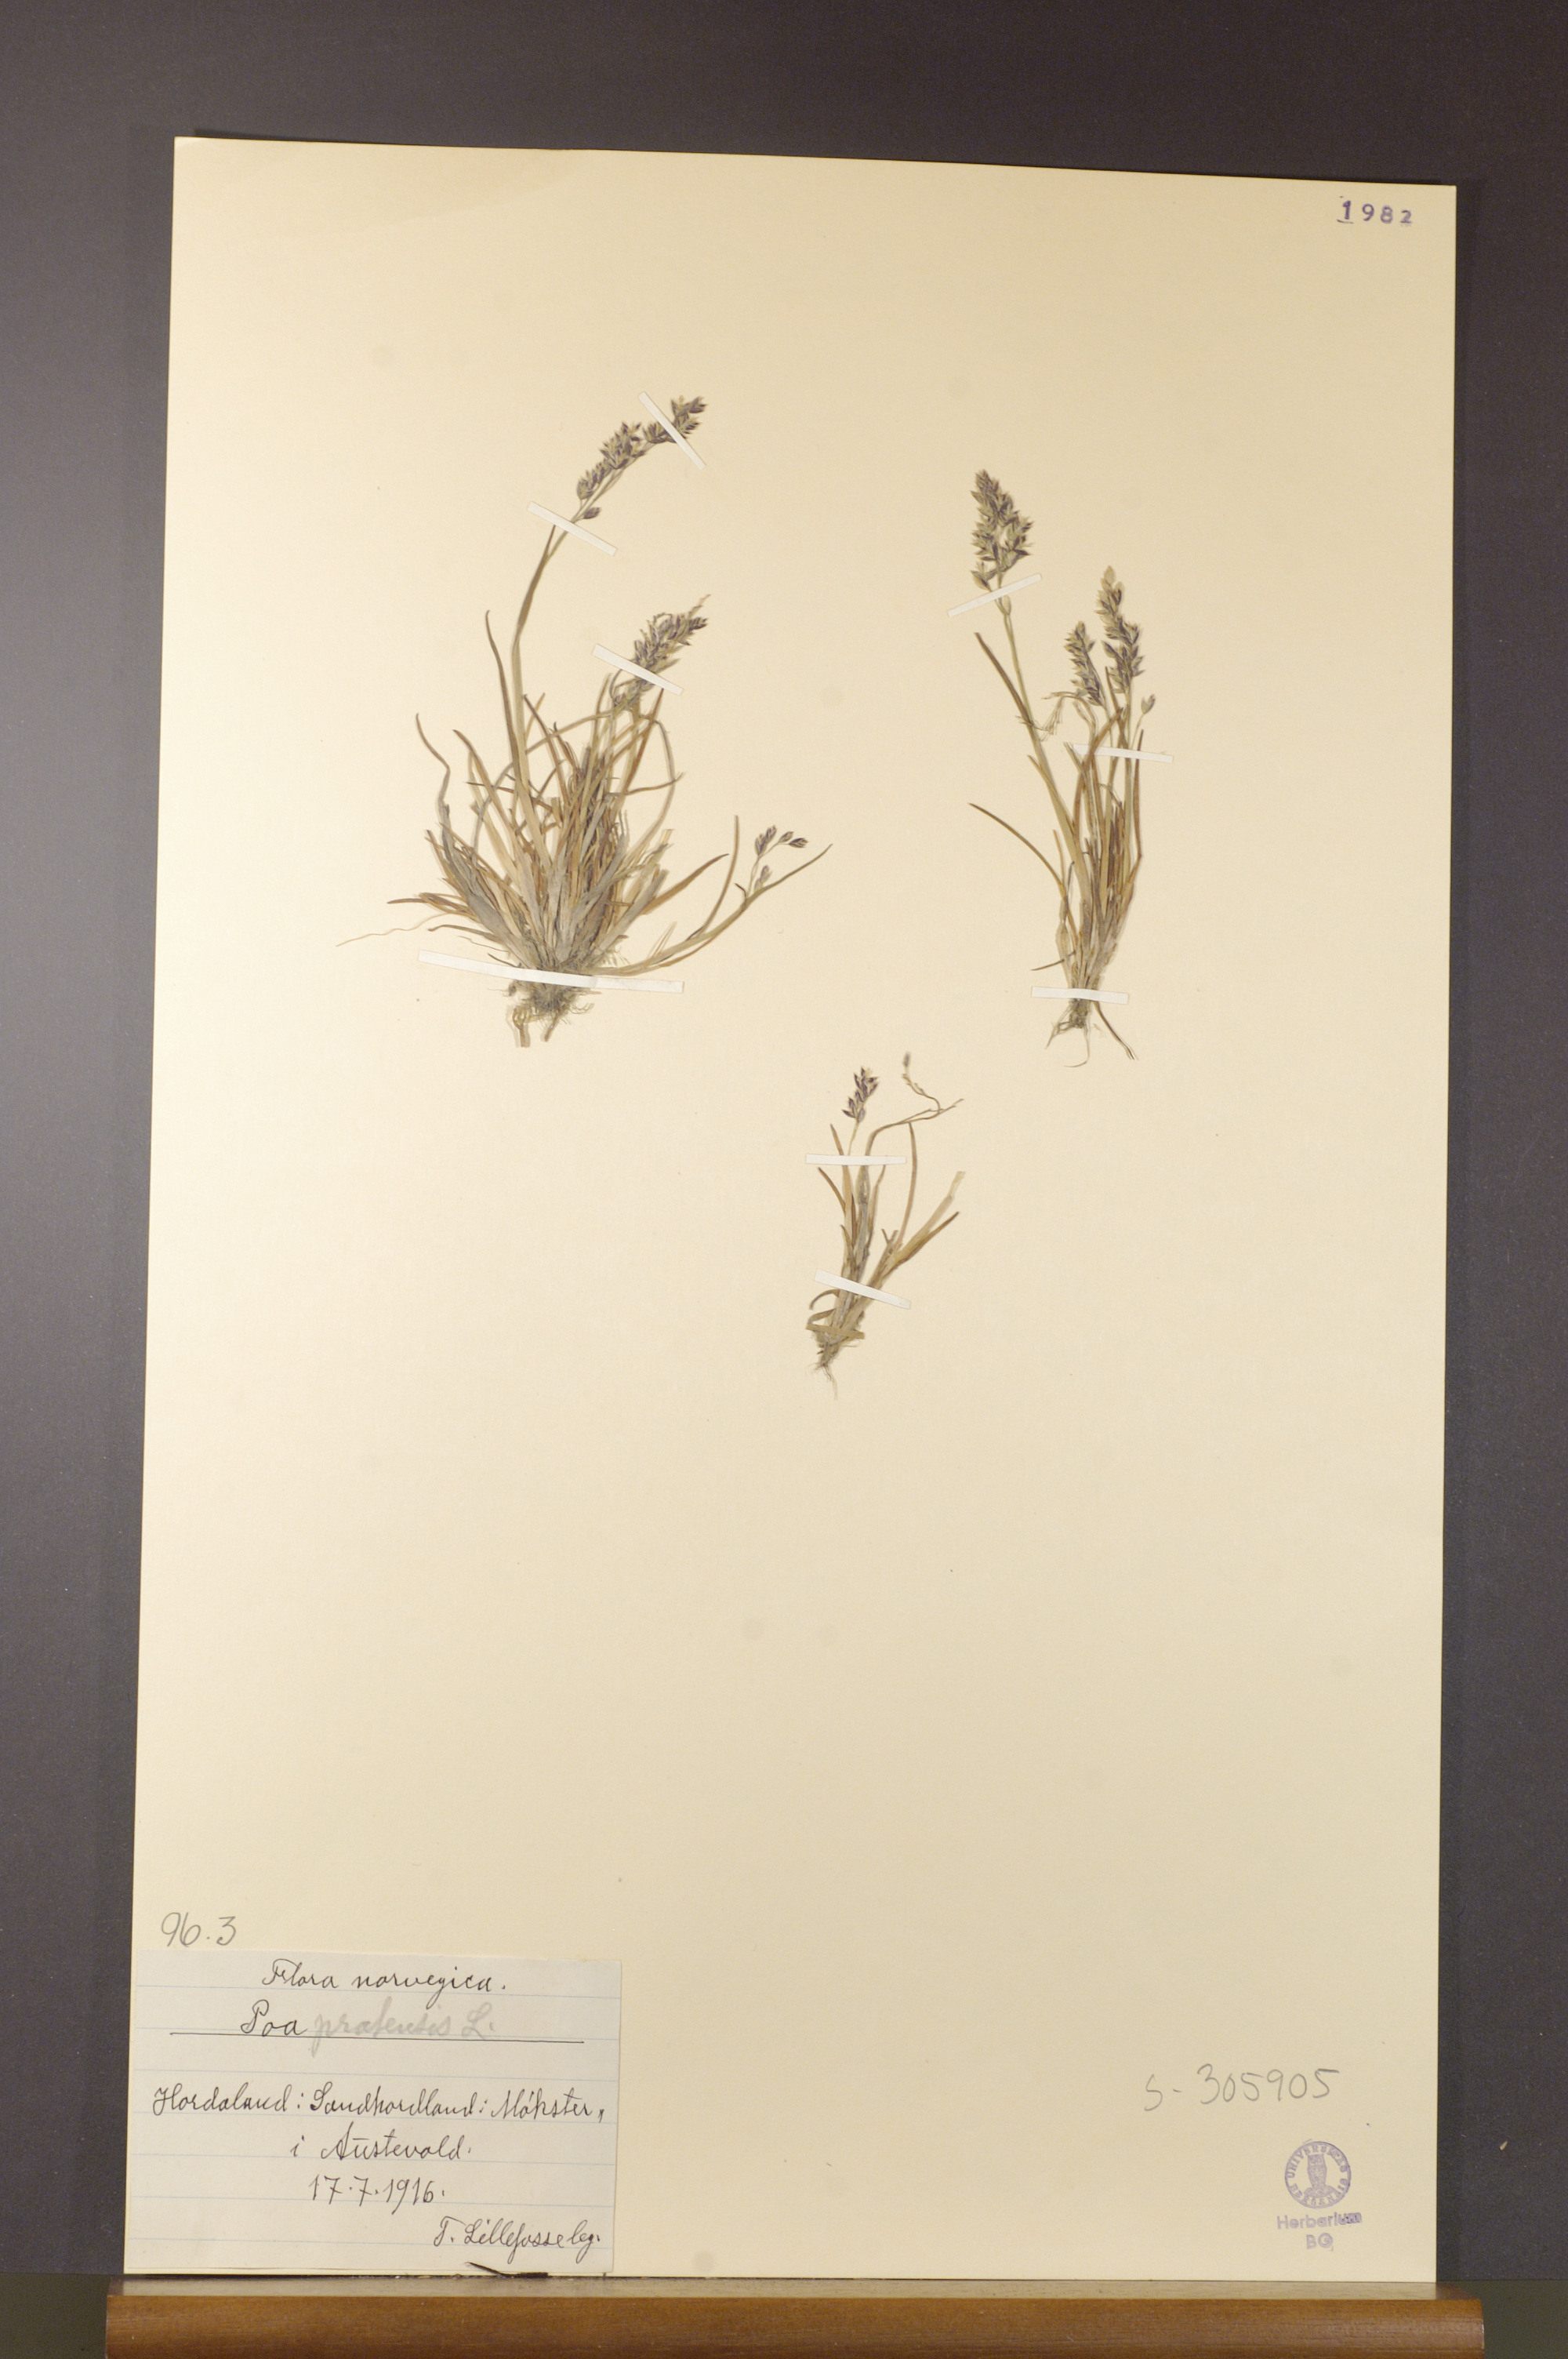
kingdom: Plantae
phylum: Tracheophyta
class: Liliopsida
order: Poales
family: Poaceae
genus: Poa
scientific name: Poa pratensis
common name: Kentucky bluegrass
